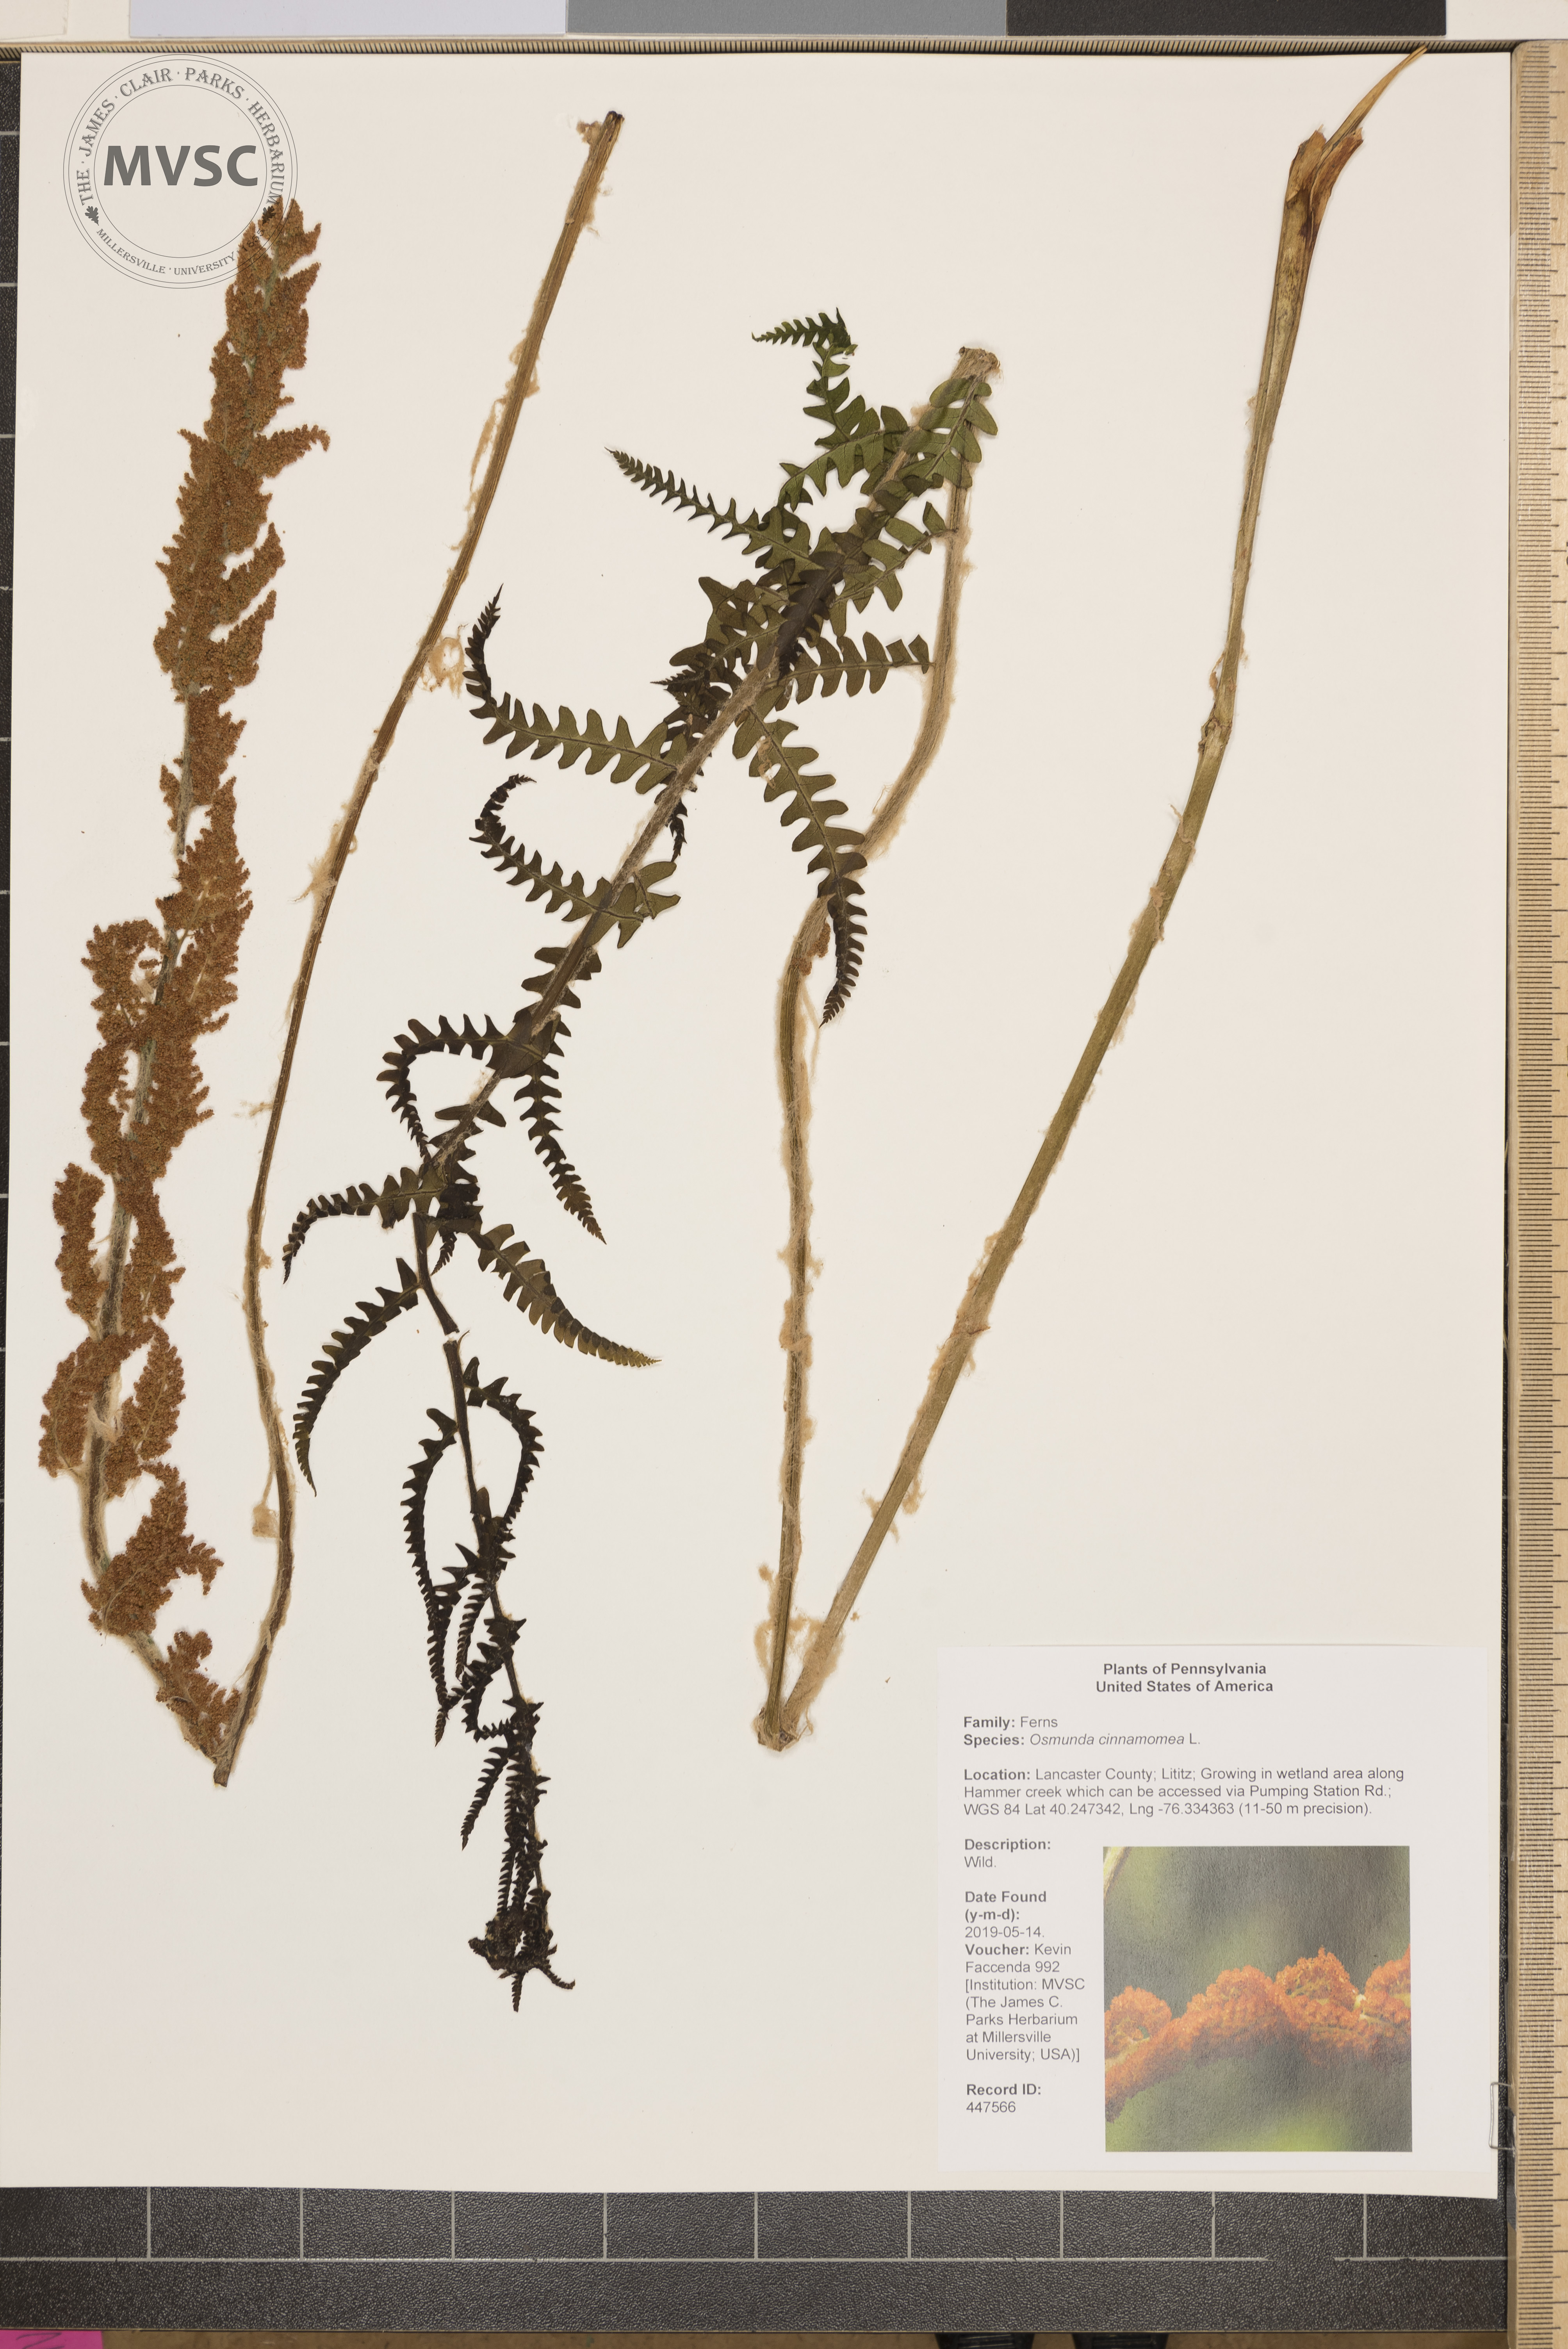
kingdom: Plantae
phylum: Tracheophyta
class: Polypodiopsida
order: Osmundales
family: Osmundaceae
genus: Osmundastrum
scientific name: Osmundastrum cinnamomeum
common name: Cinnamon fern
